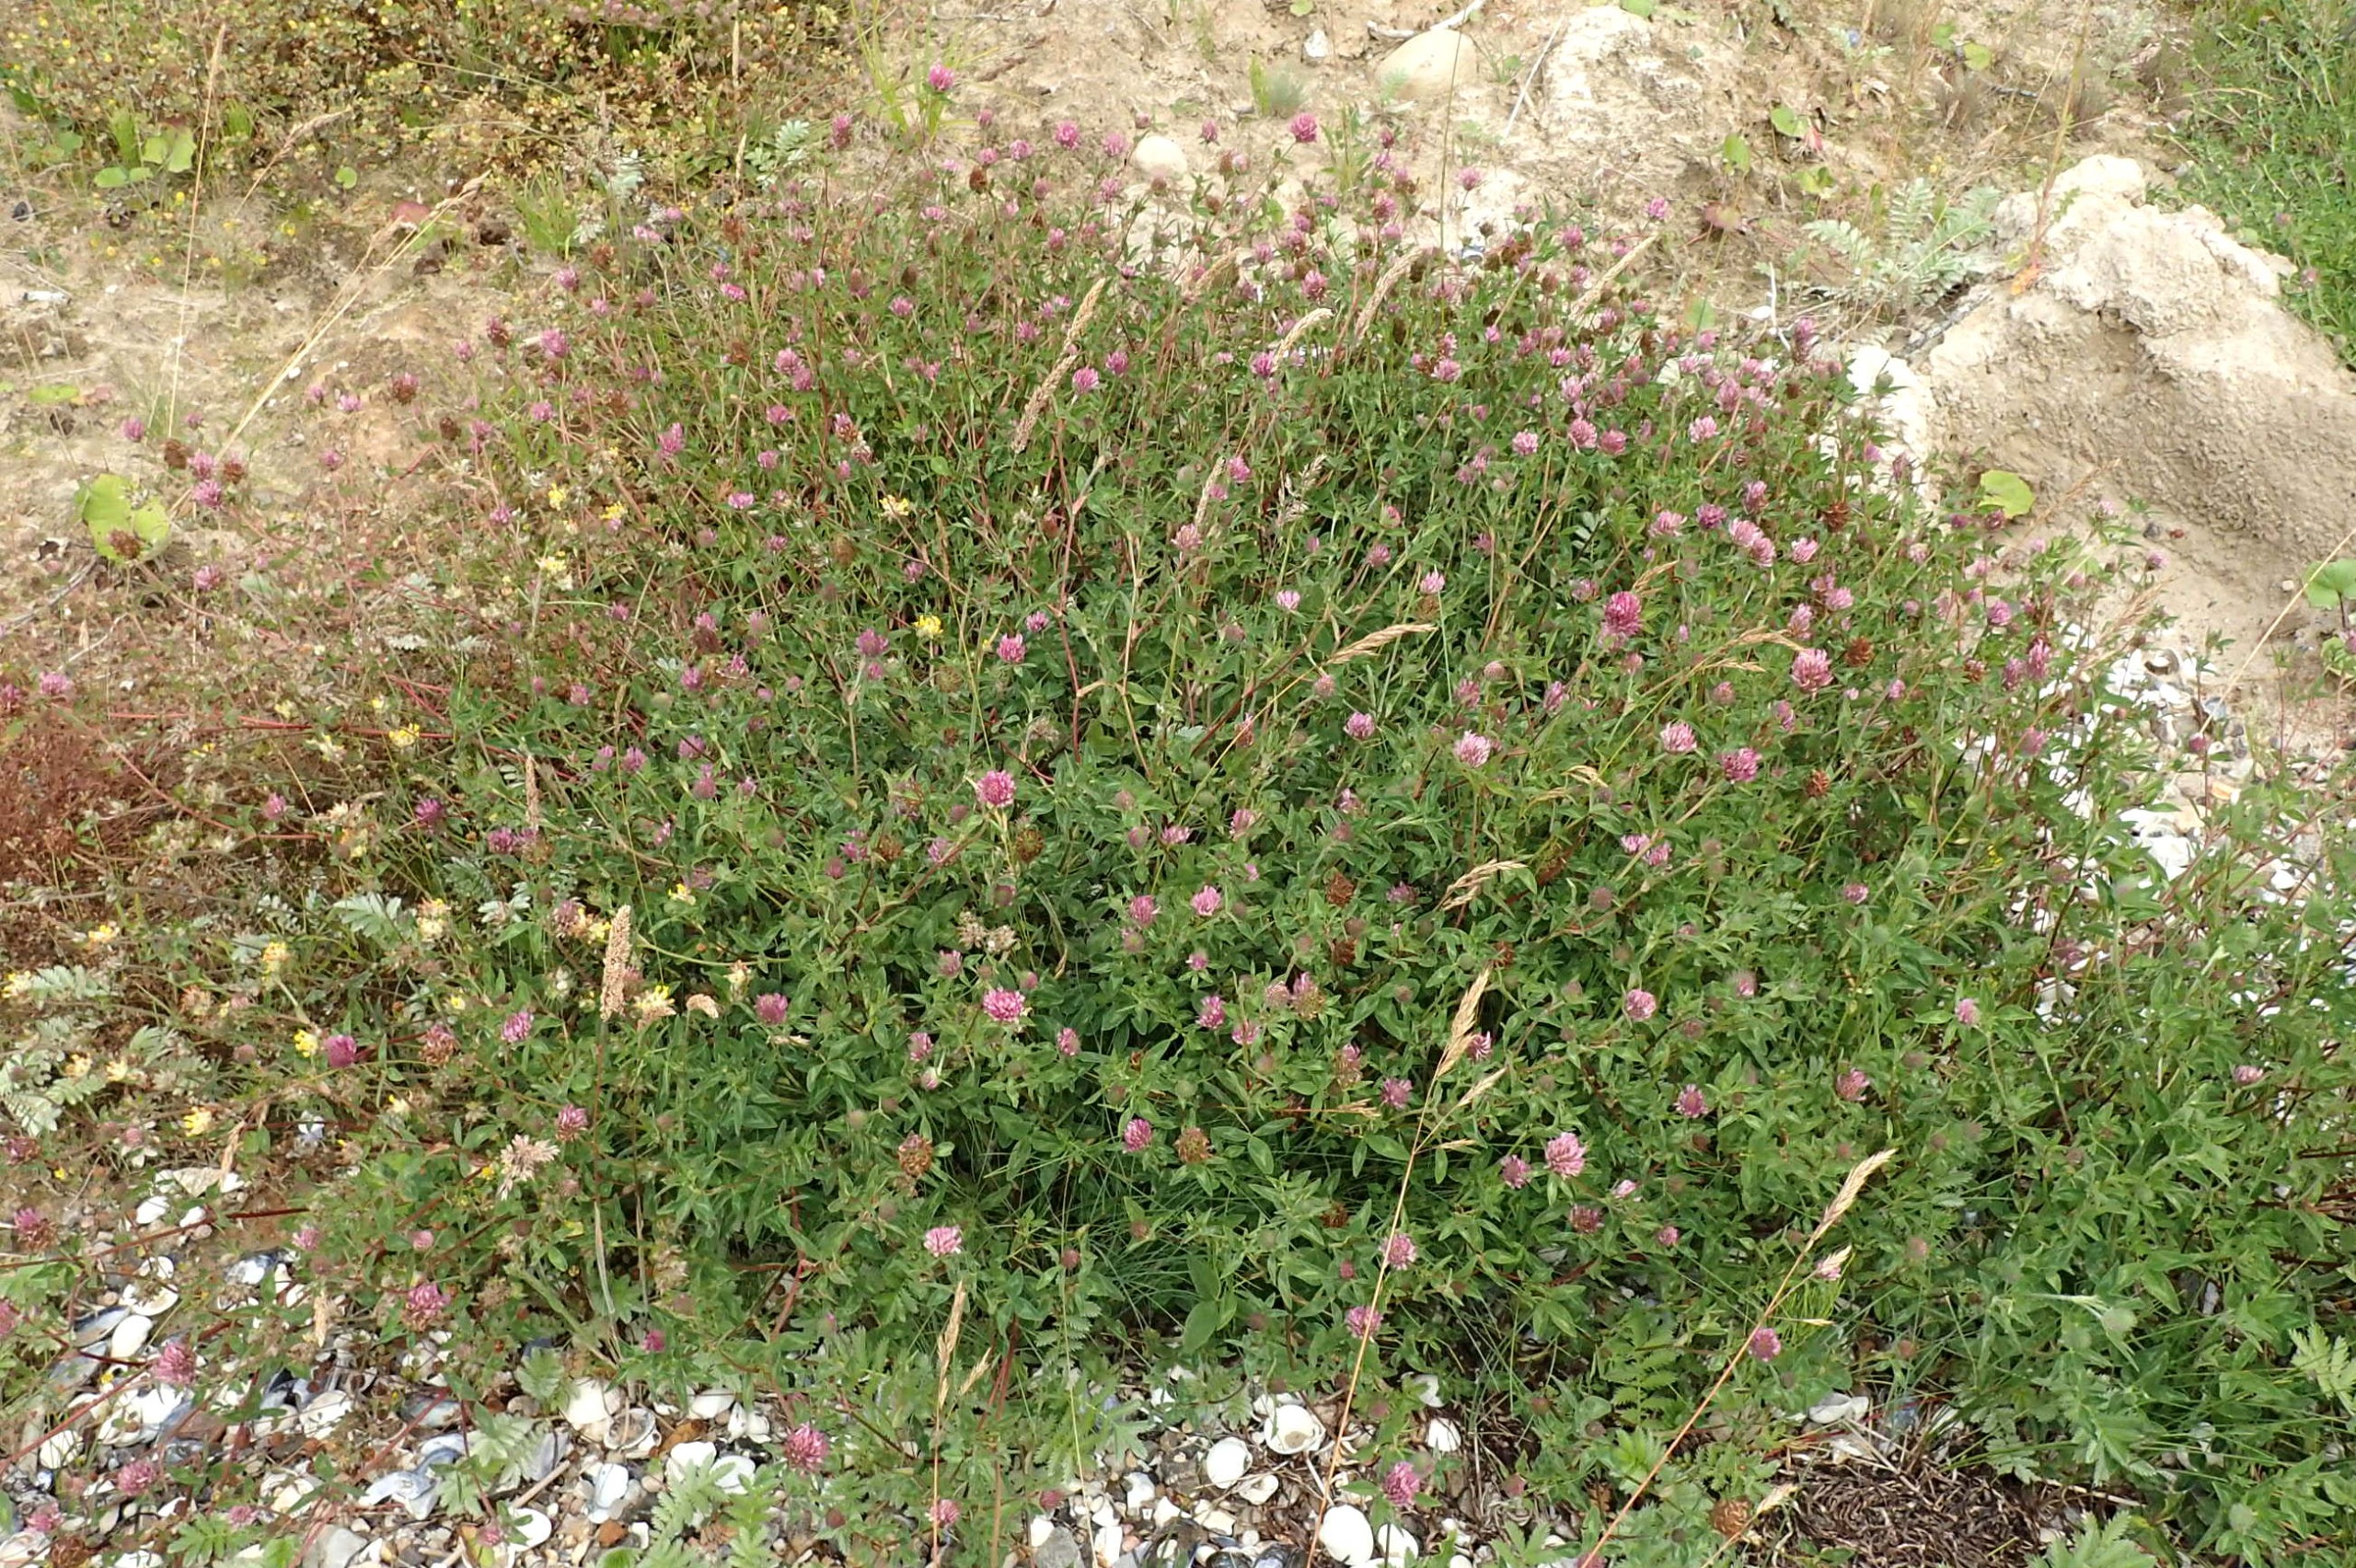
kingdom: Plantae
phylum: Tracheophyta
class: Magnoliopsida
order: Fabales
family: Fabaceae
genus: Trifolium
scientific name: Trifolium pratense
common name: Rød-kløver
